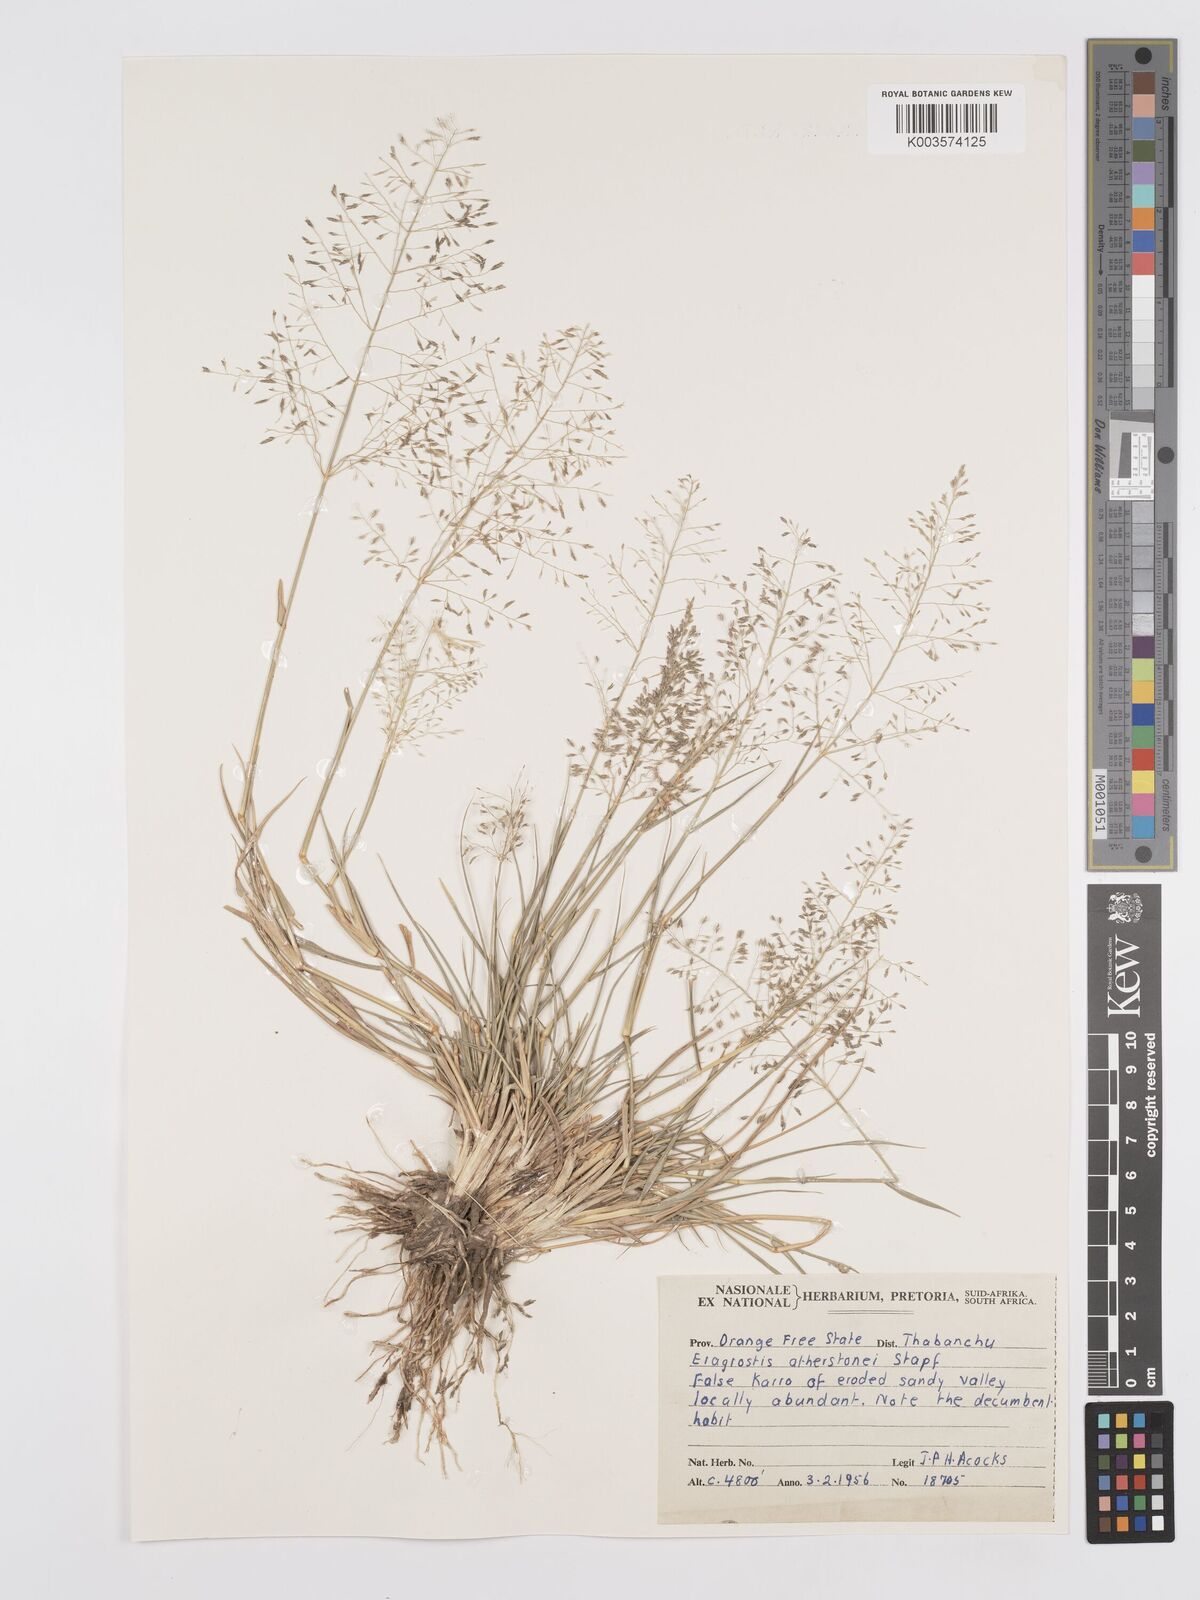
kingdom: Plantae
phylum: Tracheophyta
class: Liliopsida
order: Poales
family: Poaceae
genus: Eragrostis
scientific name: Eragrostis cylindriflora
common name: Cylinderflower lovegrass
